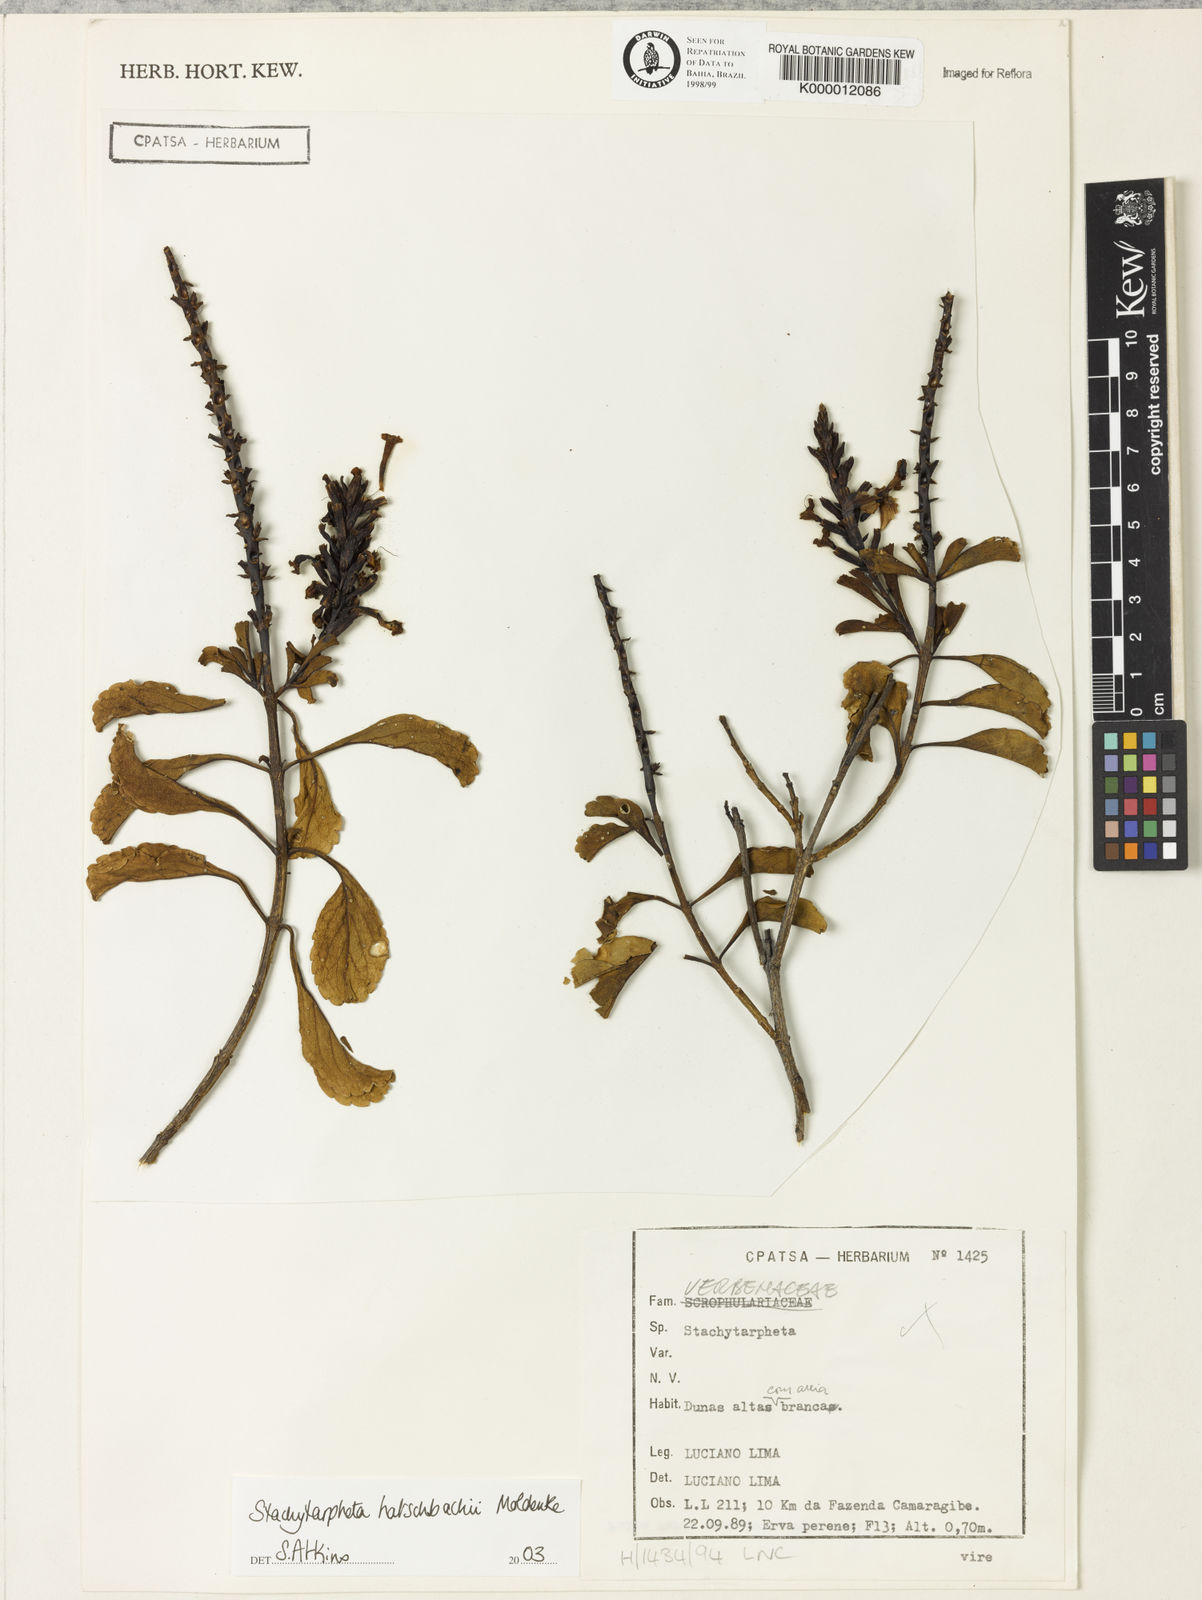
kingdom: Plantae
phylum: Tracheophyta
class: Magnoliopsida
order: Lamiales
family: Verbenaceae
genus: Stachytarpheta
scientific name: Stachytarpheta
